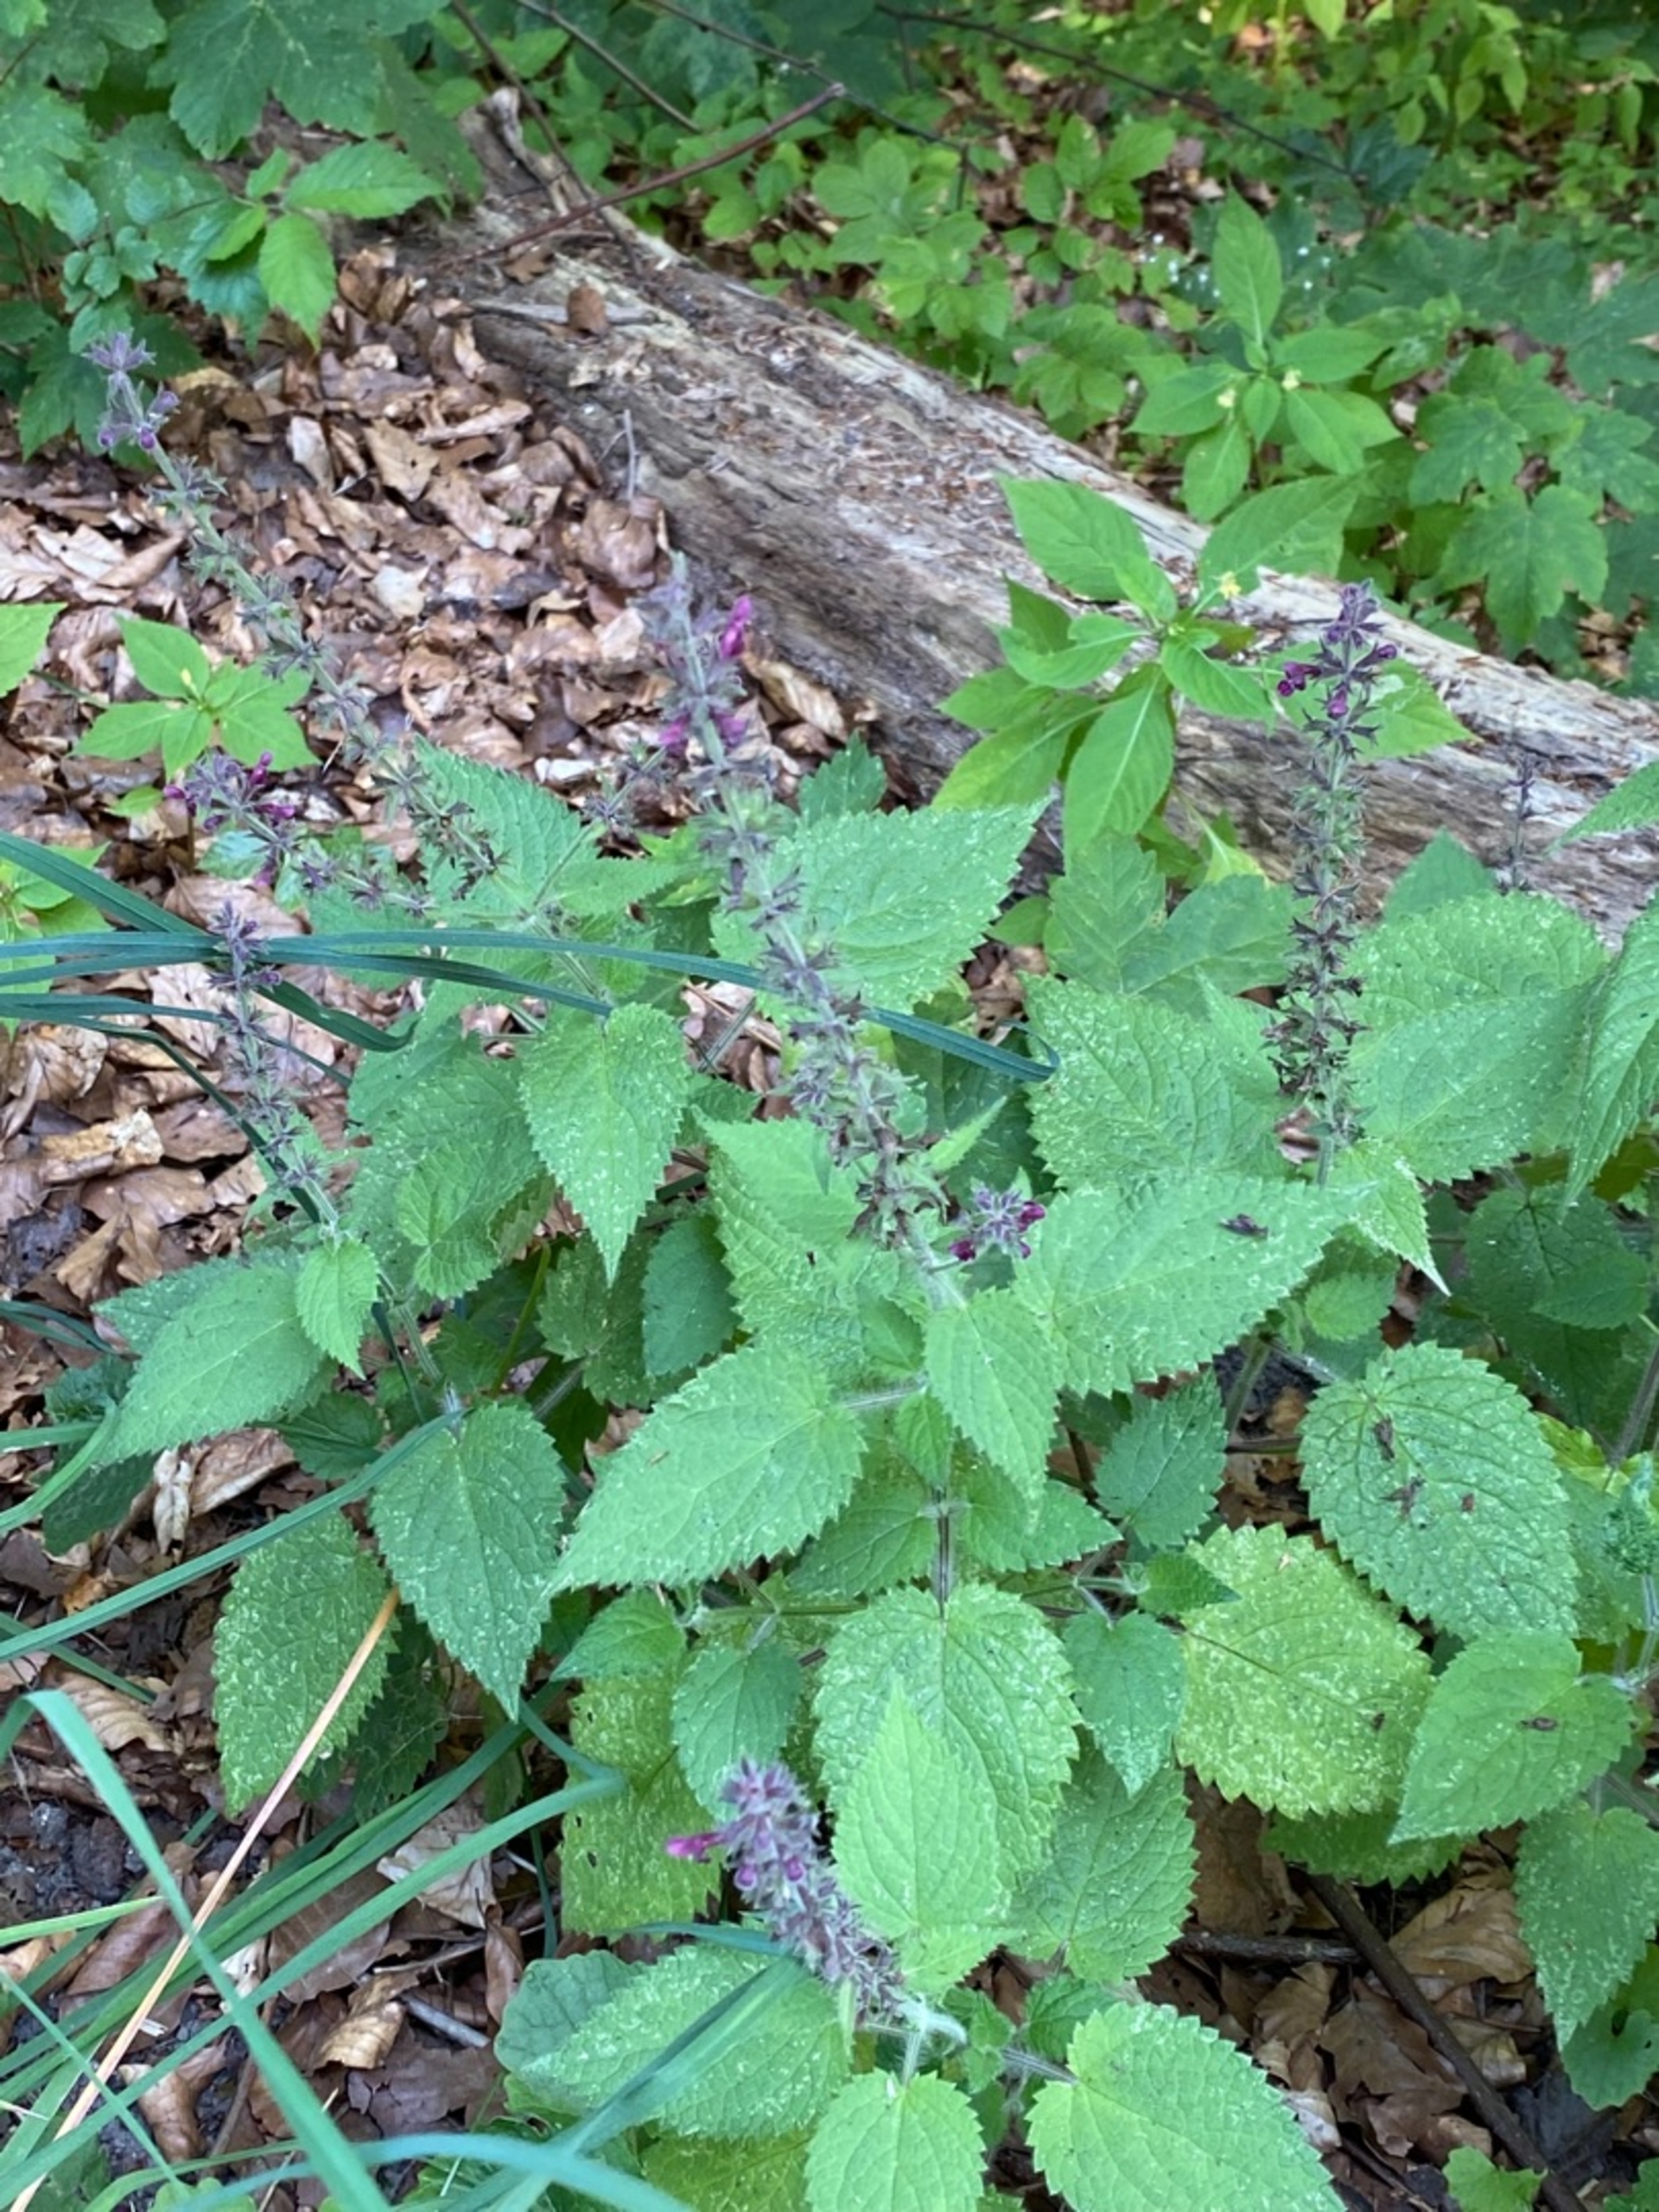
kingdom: Plantae
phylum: Tracheophyta
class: Magnoliopsida
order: Lamiales
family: Lamiaceae
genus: Stachys
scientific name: Stachys sylvatica
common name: Skov-galtetand
